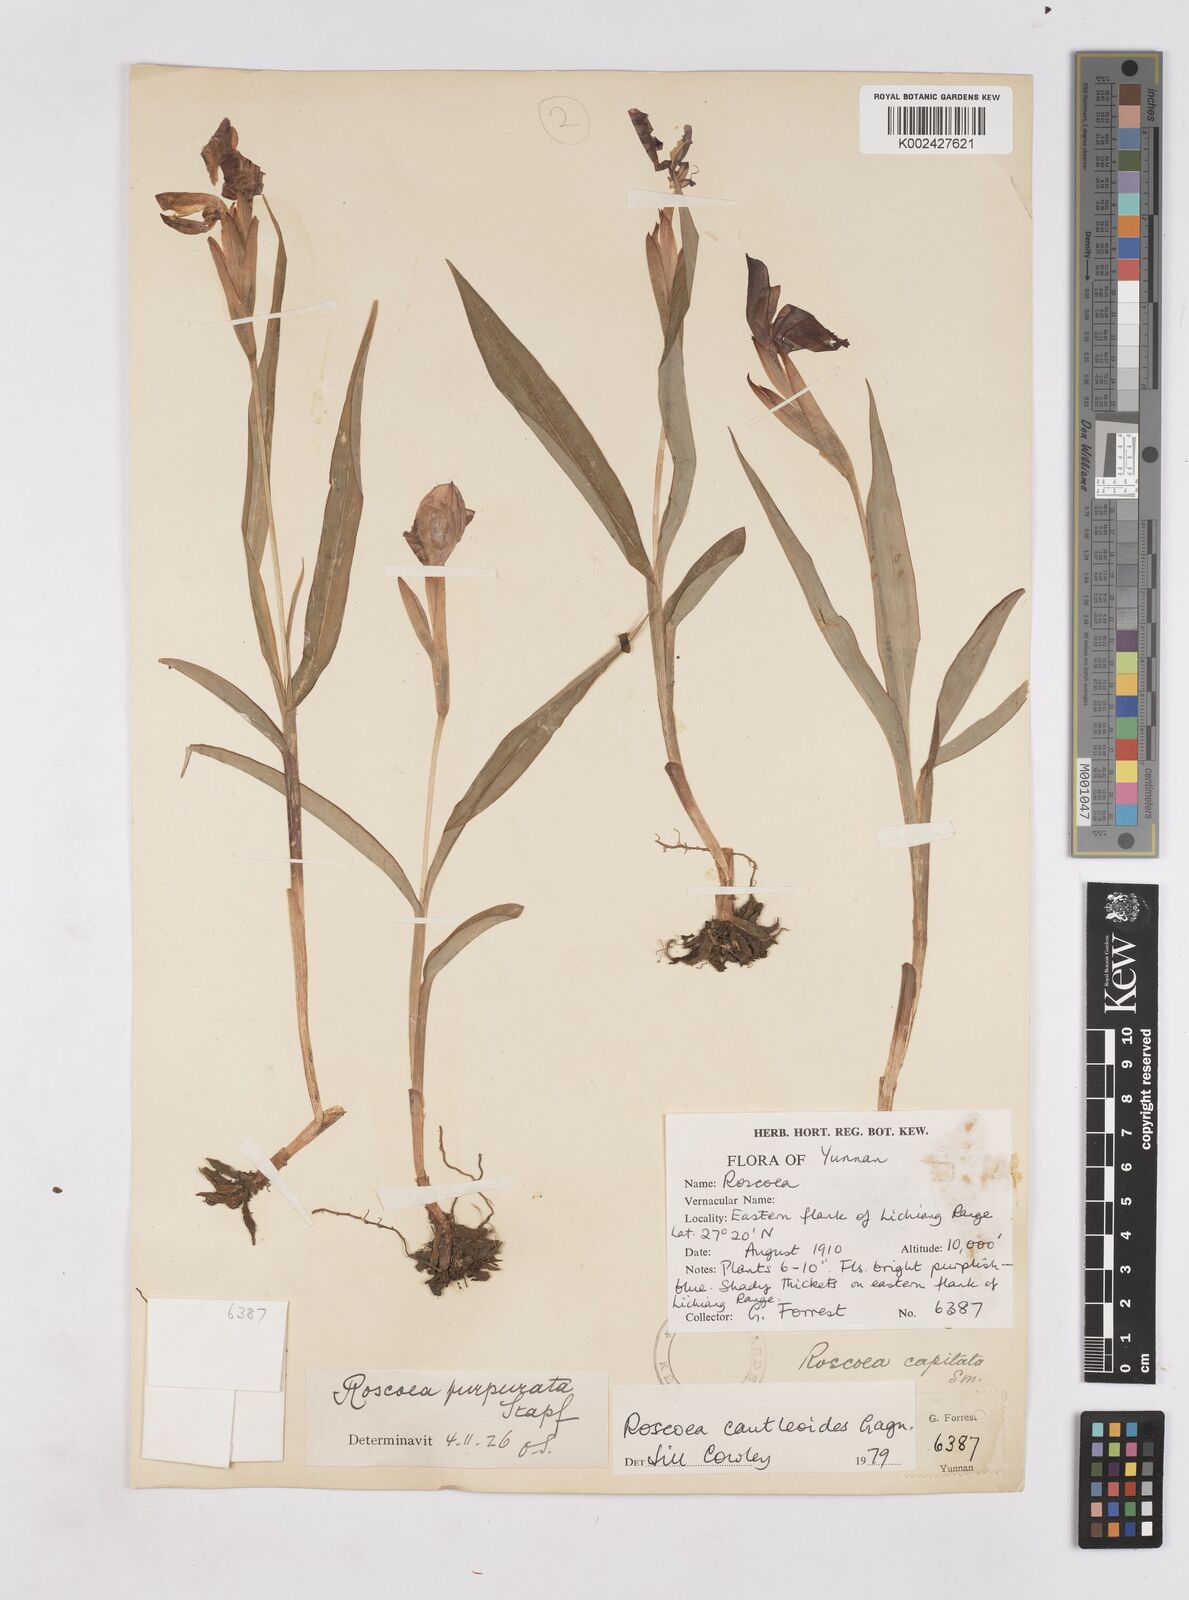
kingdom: Plantae
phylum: Tracheophyta
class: Liliopsida
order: Zingiberales
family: Zingiberaceae
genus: Roscoea
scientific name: Roscoea cautleyoides
